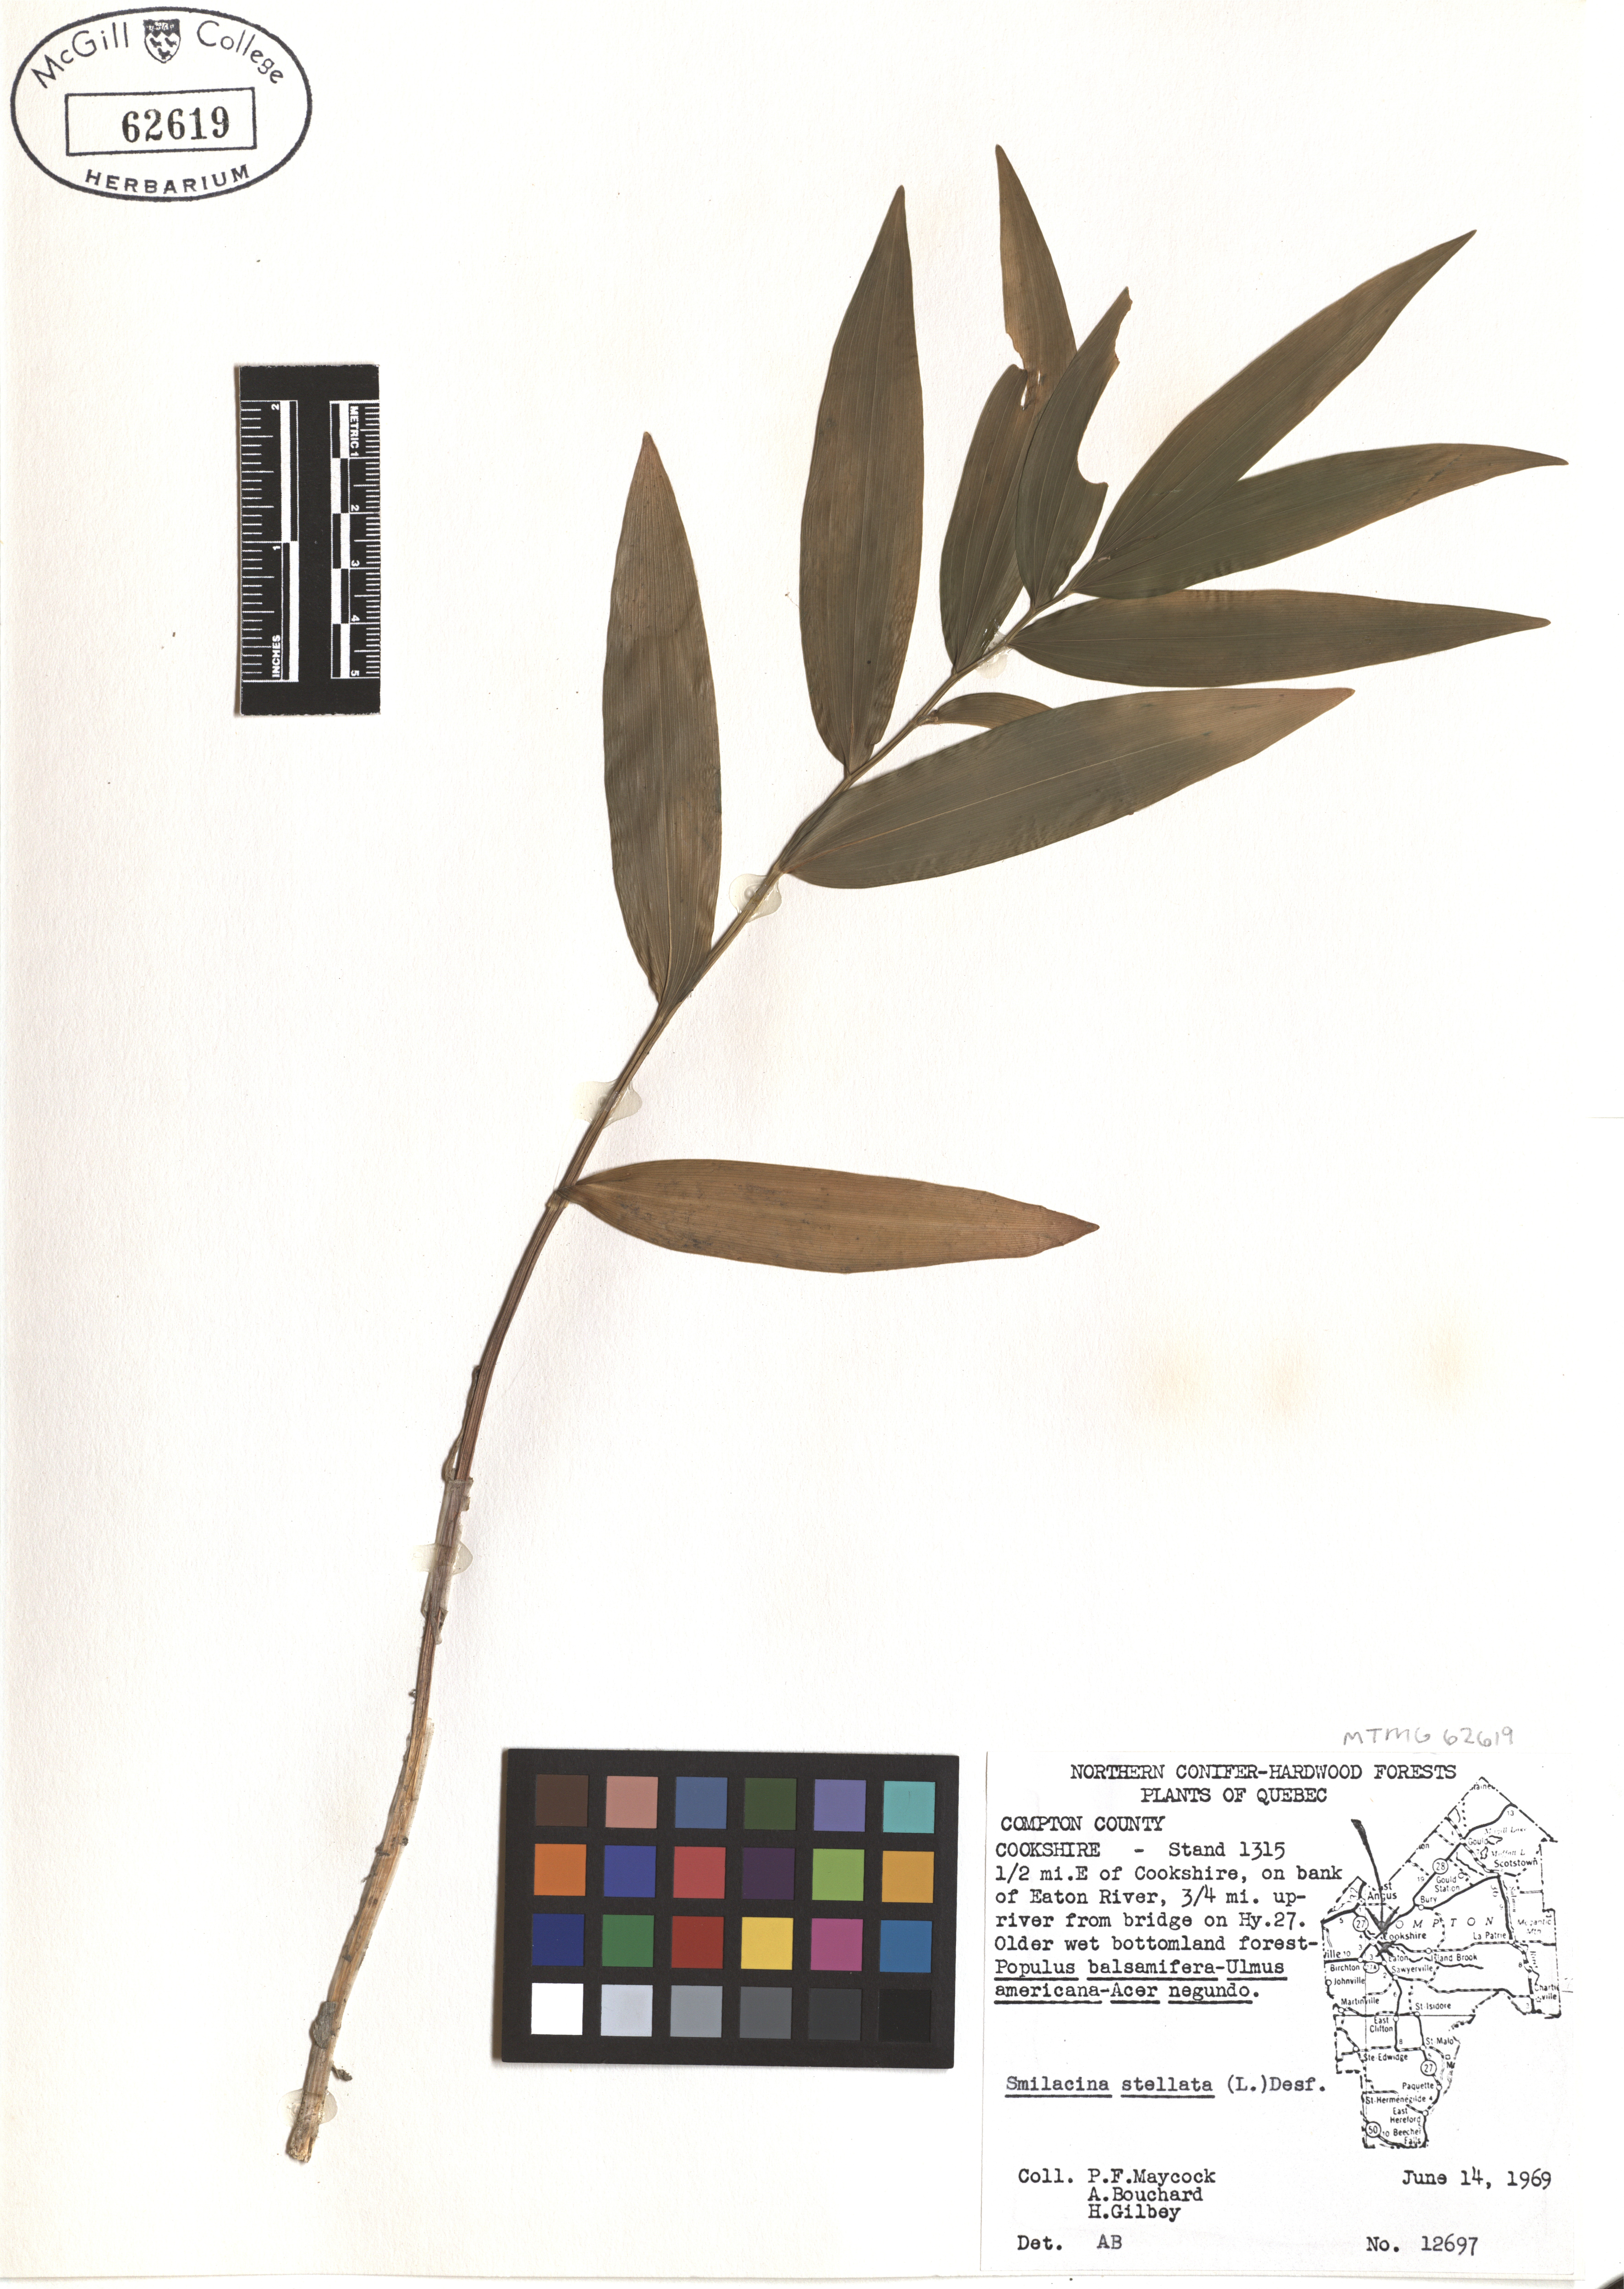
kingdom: Plantae
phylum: Tracheophyta
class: Liliopsida
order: Asparagales
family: Asparagaceae
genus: Maianthemum
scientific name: Maianthemum stellatum
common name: Little false solomon's seal
